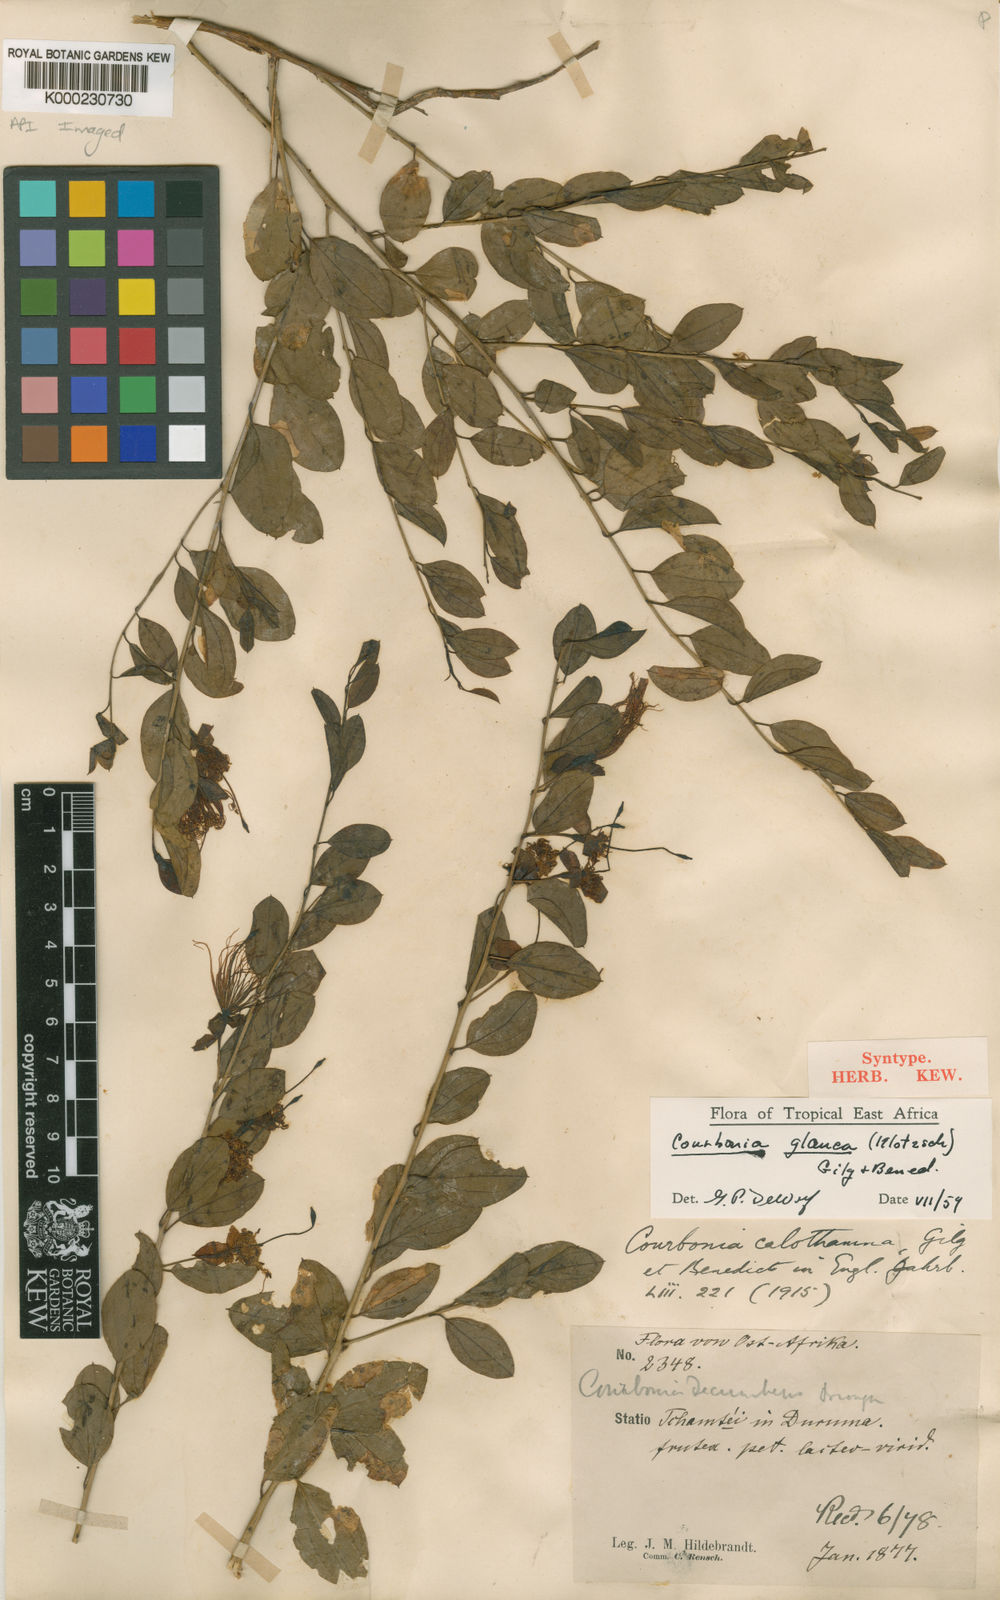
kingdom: Plantae
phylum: Tracheophyta
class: Magnoliopsida
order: Brassicales
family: Capparaceae
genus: Maerua
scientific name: Maerua edulis
